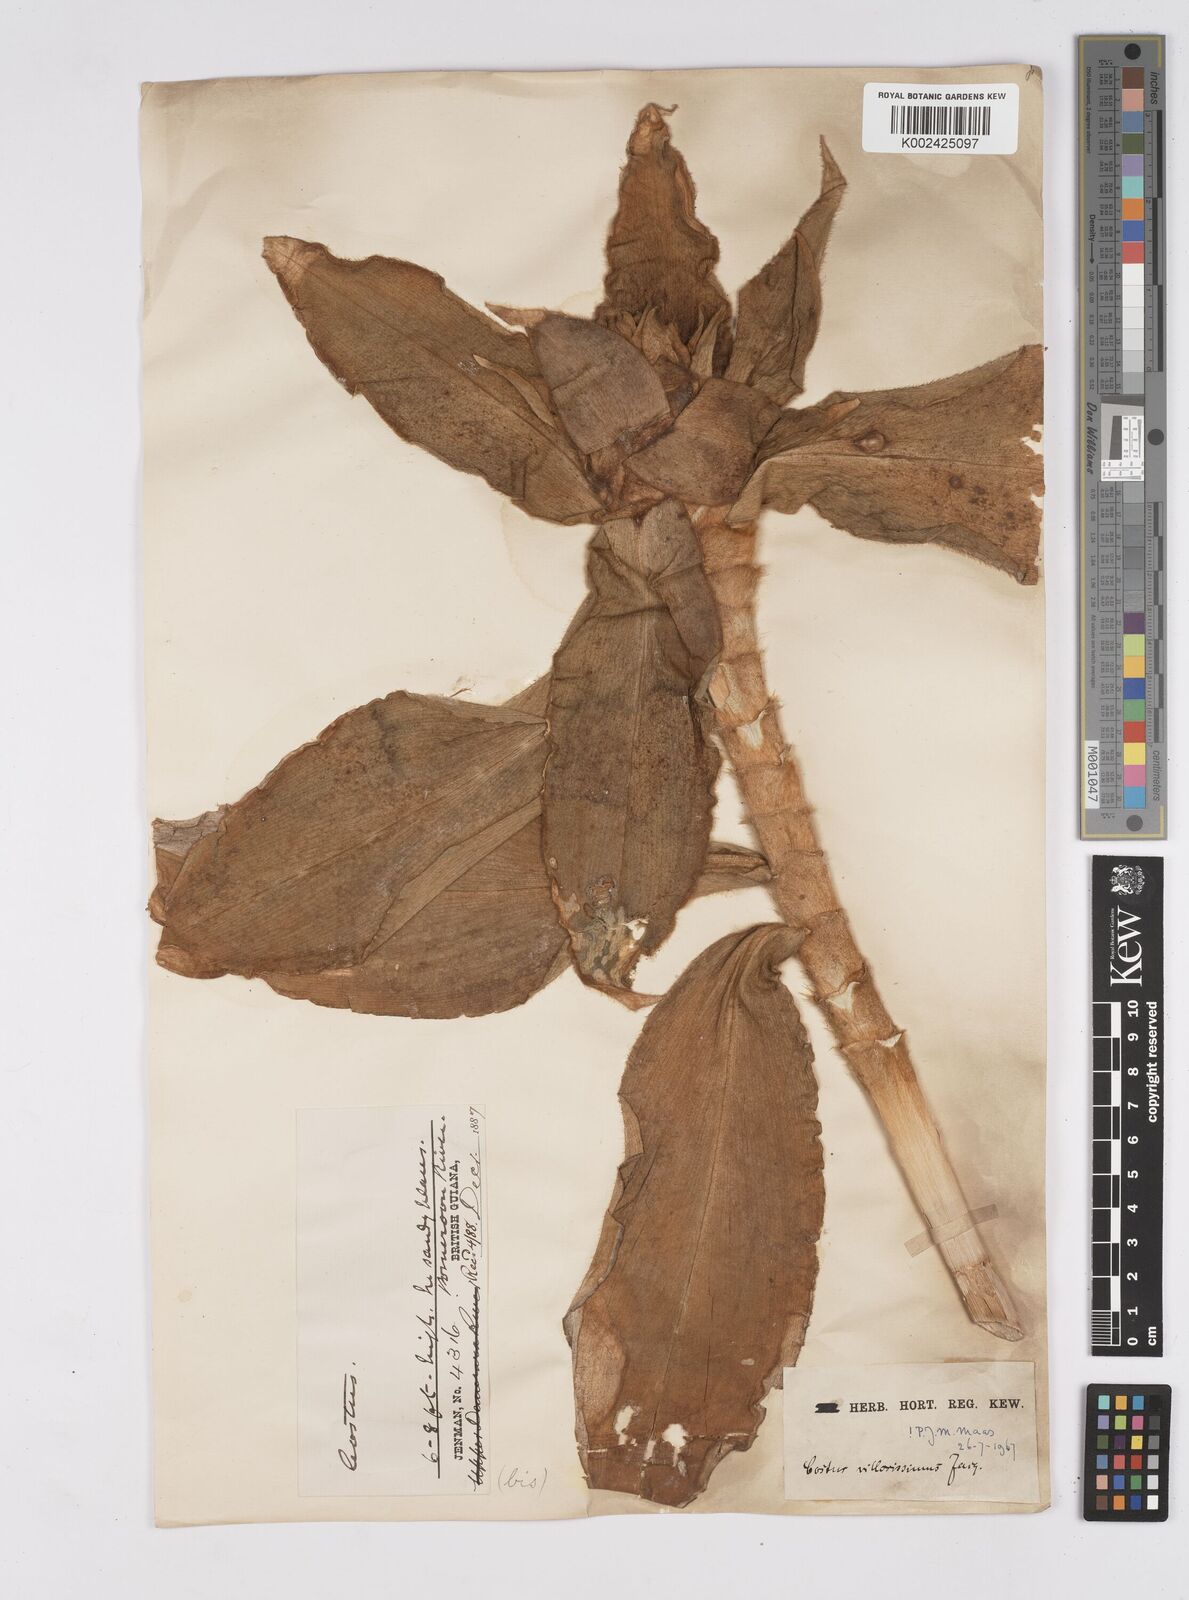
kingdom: Plantae
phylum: Tracheophyta
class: Liliopsida
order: Zingiberales
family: Costaceae
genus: Costus
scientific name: Costus villosissimus
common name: Spiral flag
